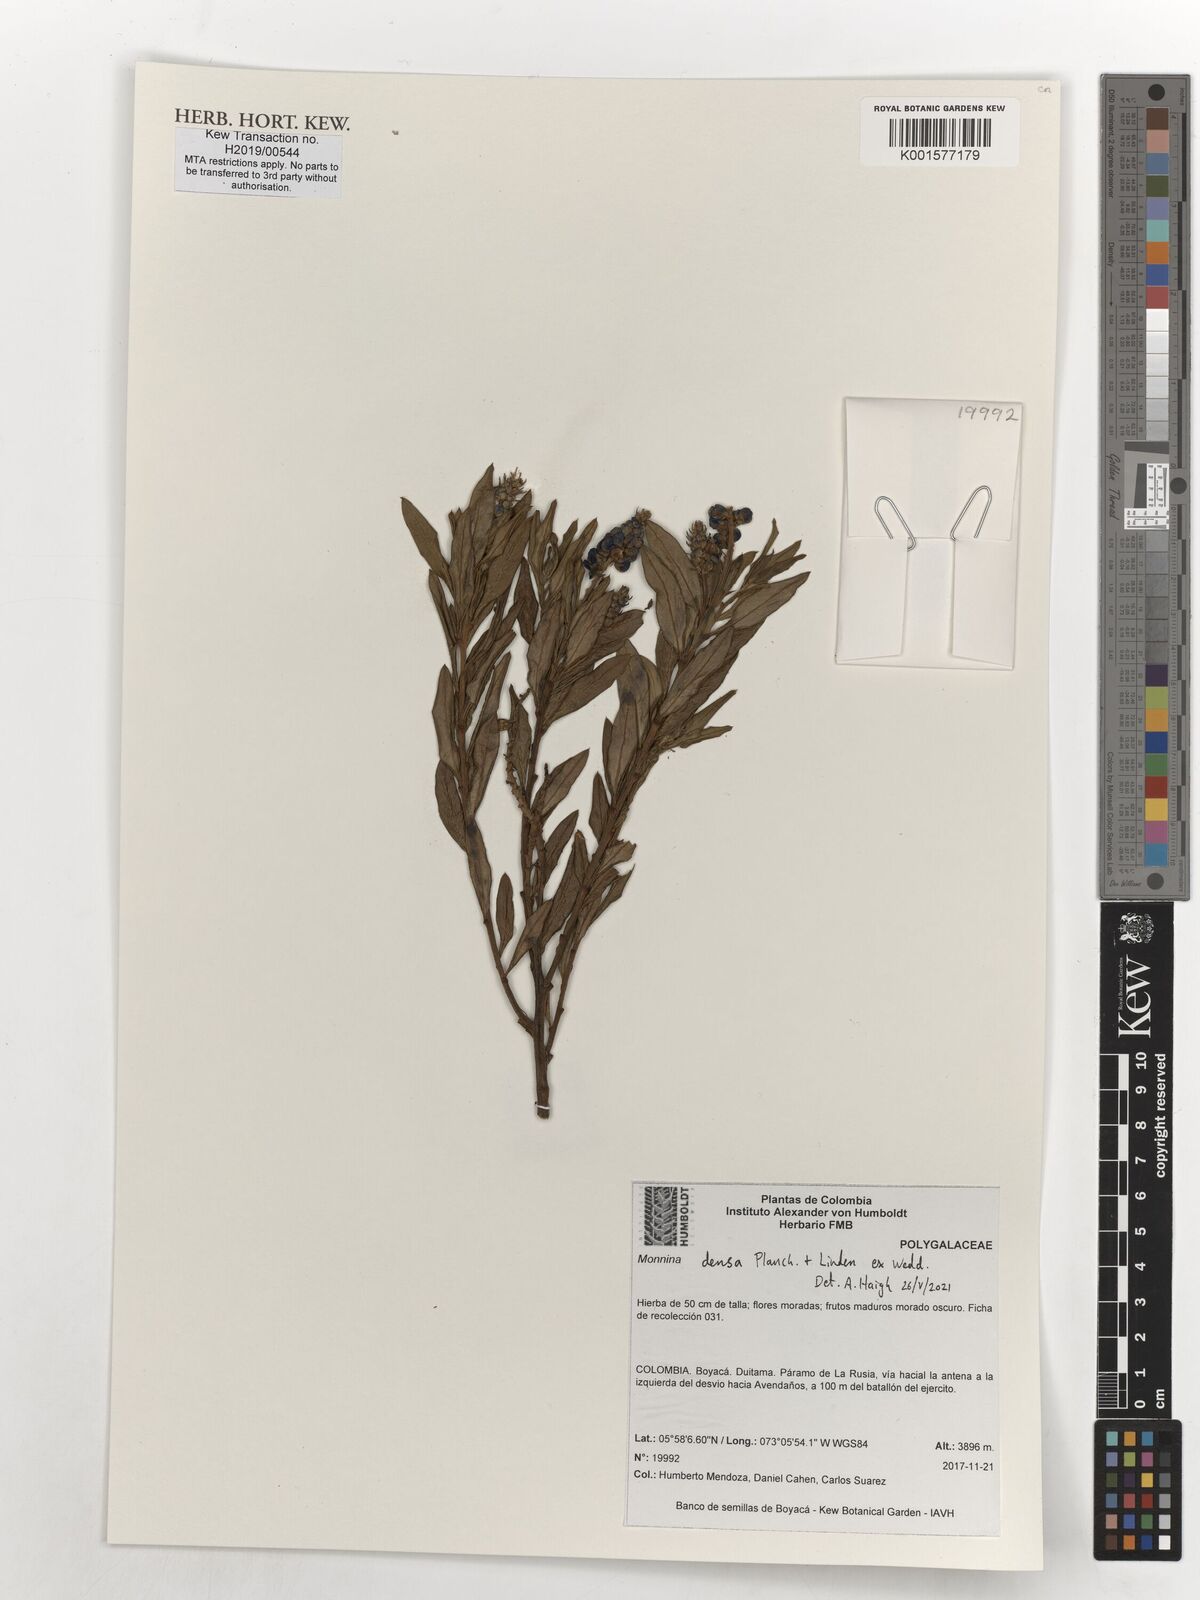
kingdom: Plantae
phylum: Tracheophyta
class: Magnoliopsida
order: Fabales
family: Polygalaceae
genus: Monnina
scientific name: Monnina densa
